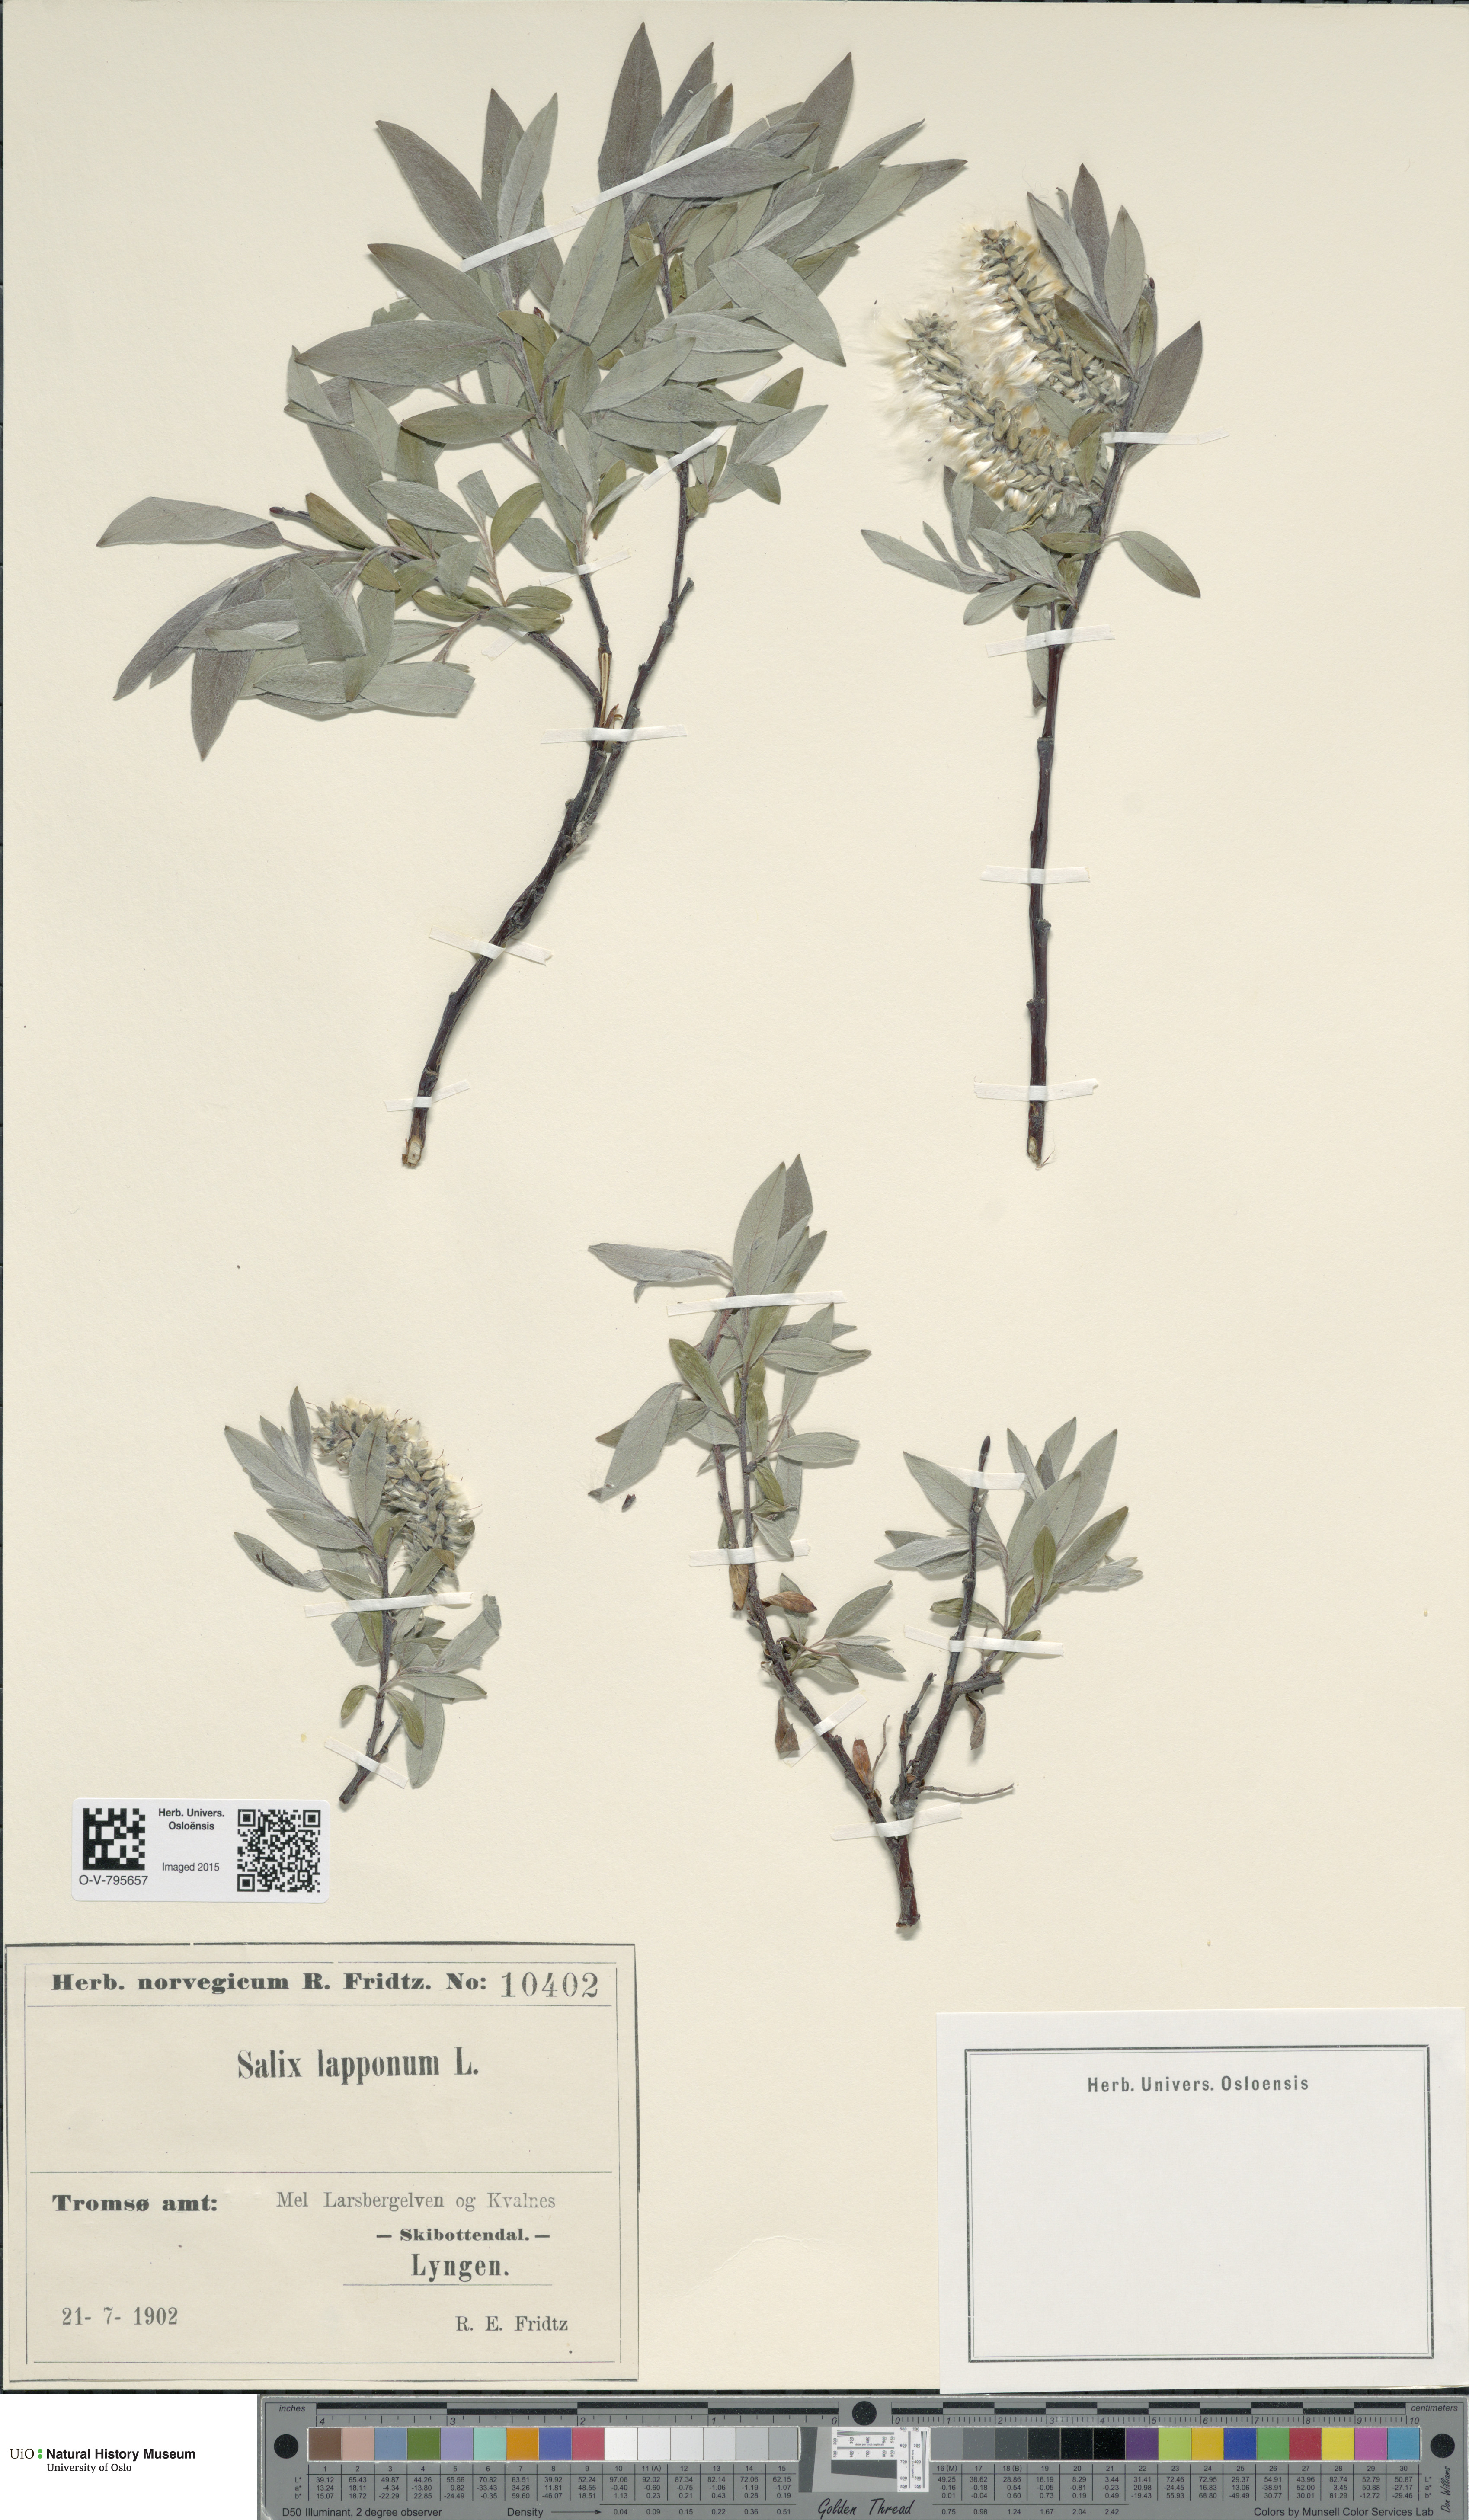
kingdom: Plantae
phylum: Tracheophyta
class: Magnoliopsida
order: Malpighiales
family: Salicaceae
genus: Salix
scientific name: Salix lapponum
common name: Downy willow
